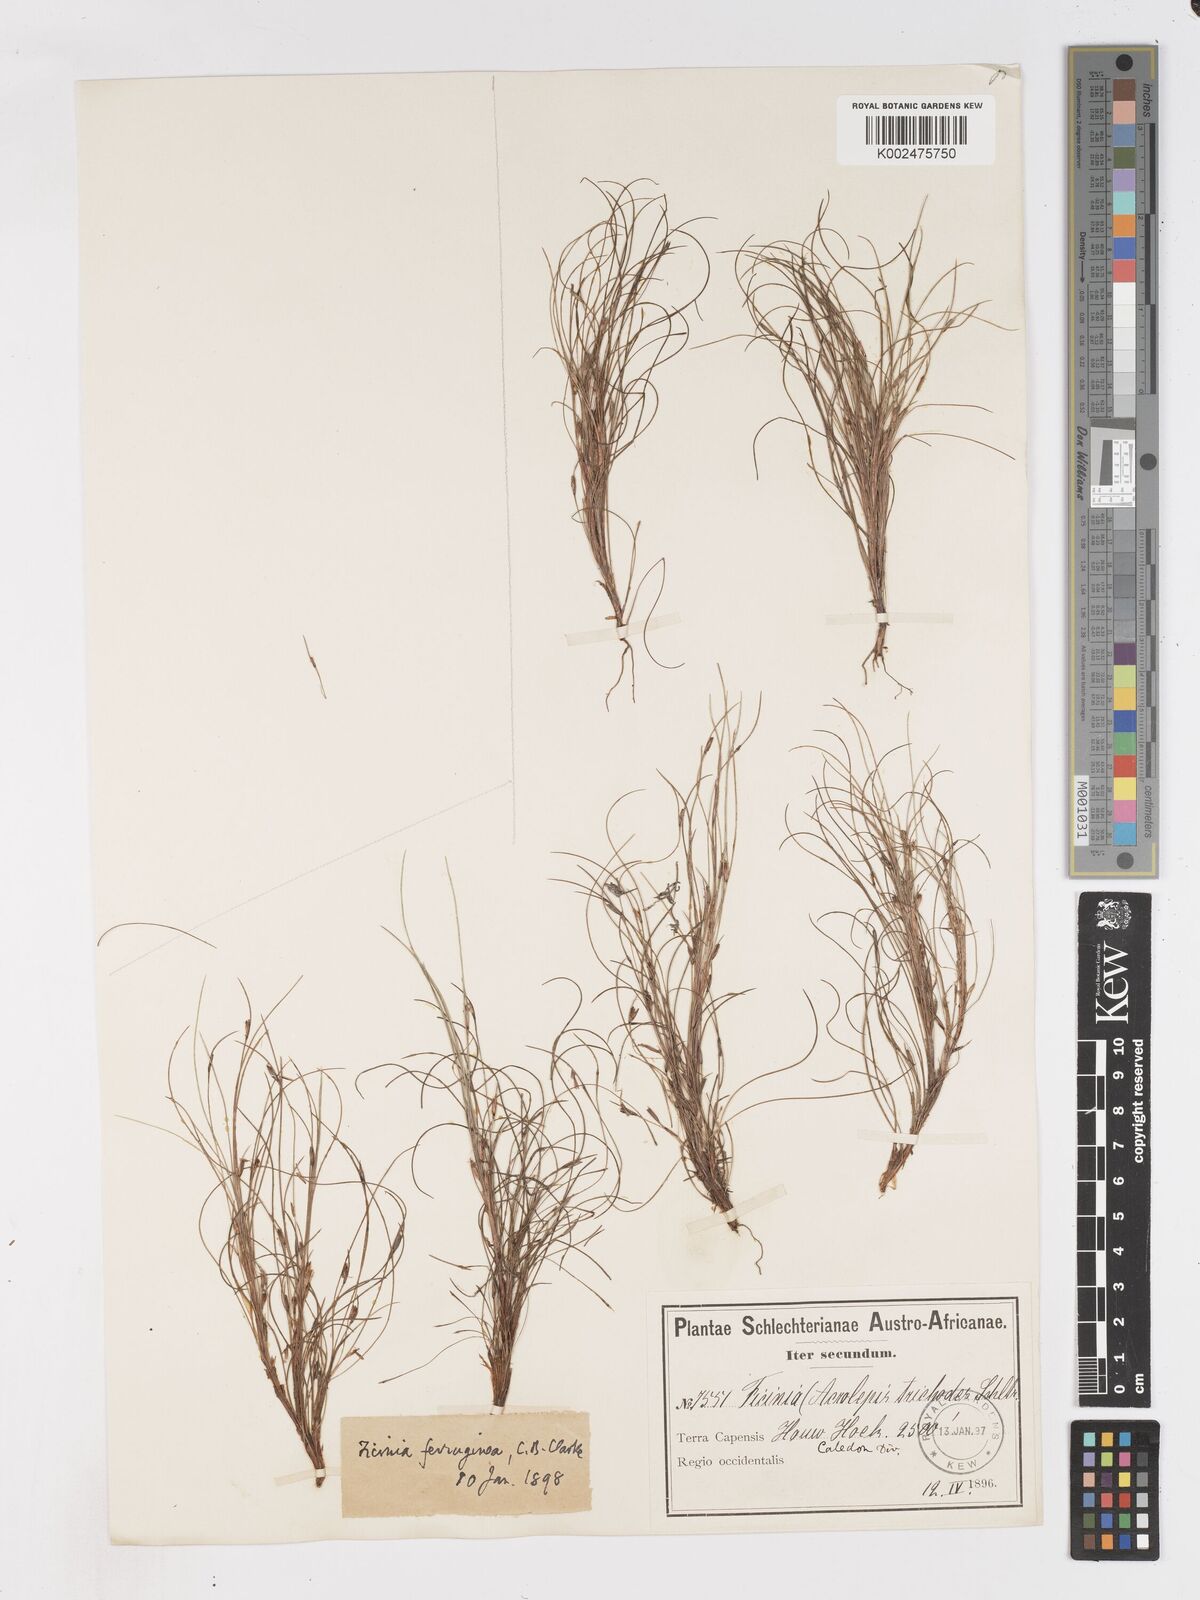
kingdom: Plantae
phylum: Tracheophyta
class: Liliopsida
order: Poales
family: Cyperaceae
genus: Ficinia
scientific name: Ficinia trichodes
